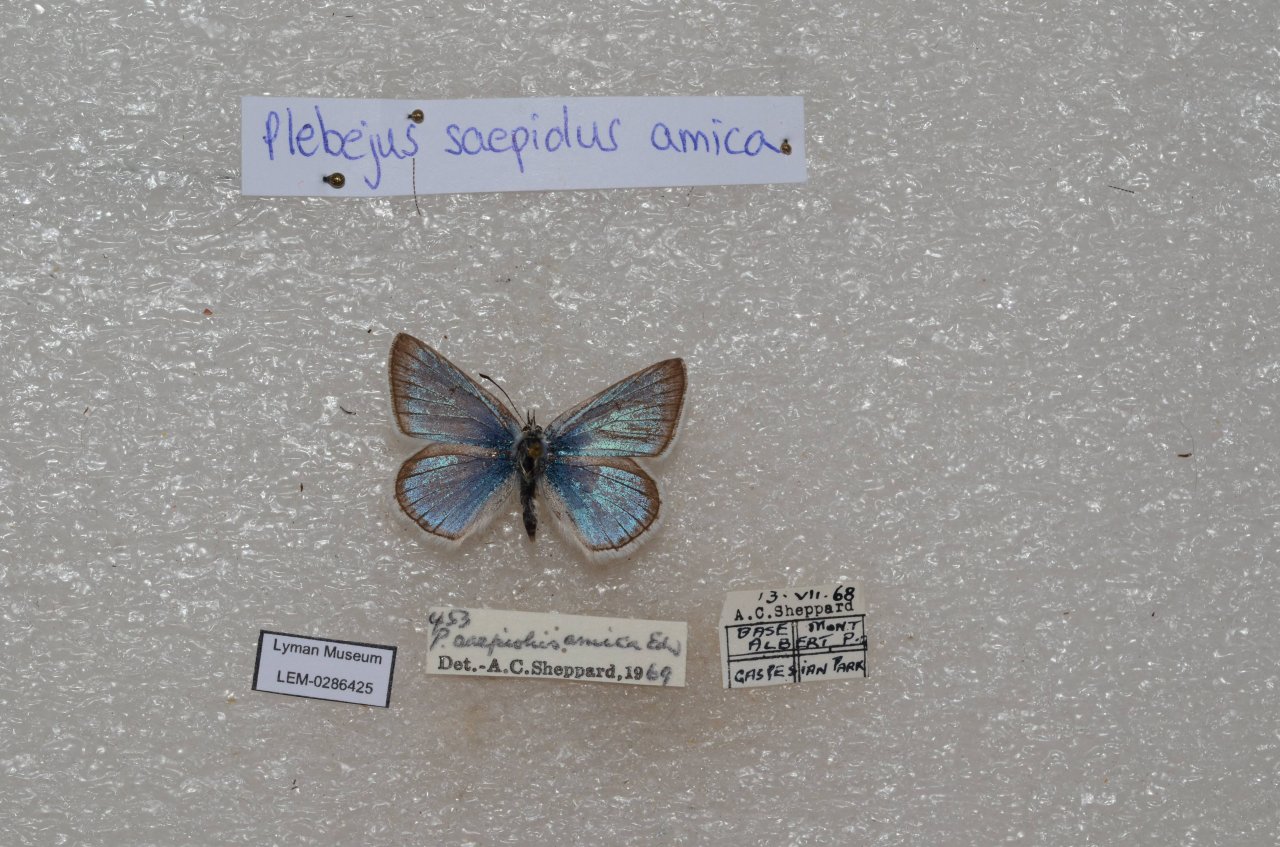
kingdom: Animalia
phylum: Arthropoda
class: Insecta
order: Lepidoptera
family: Lycaenidae
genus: Plebejus
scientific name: Plebejus saepiolus
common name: Greenish Blue
